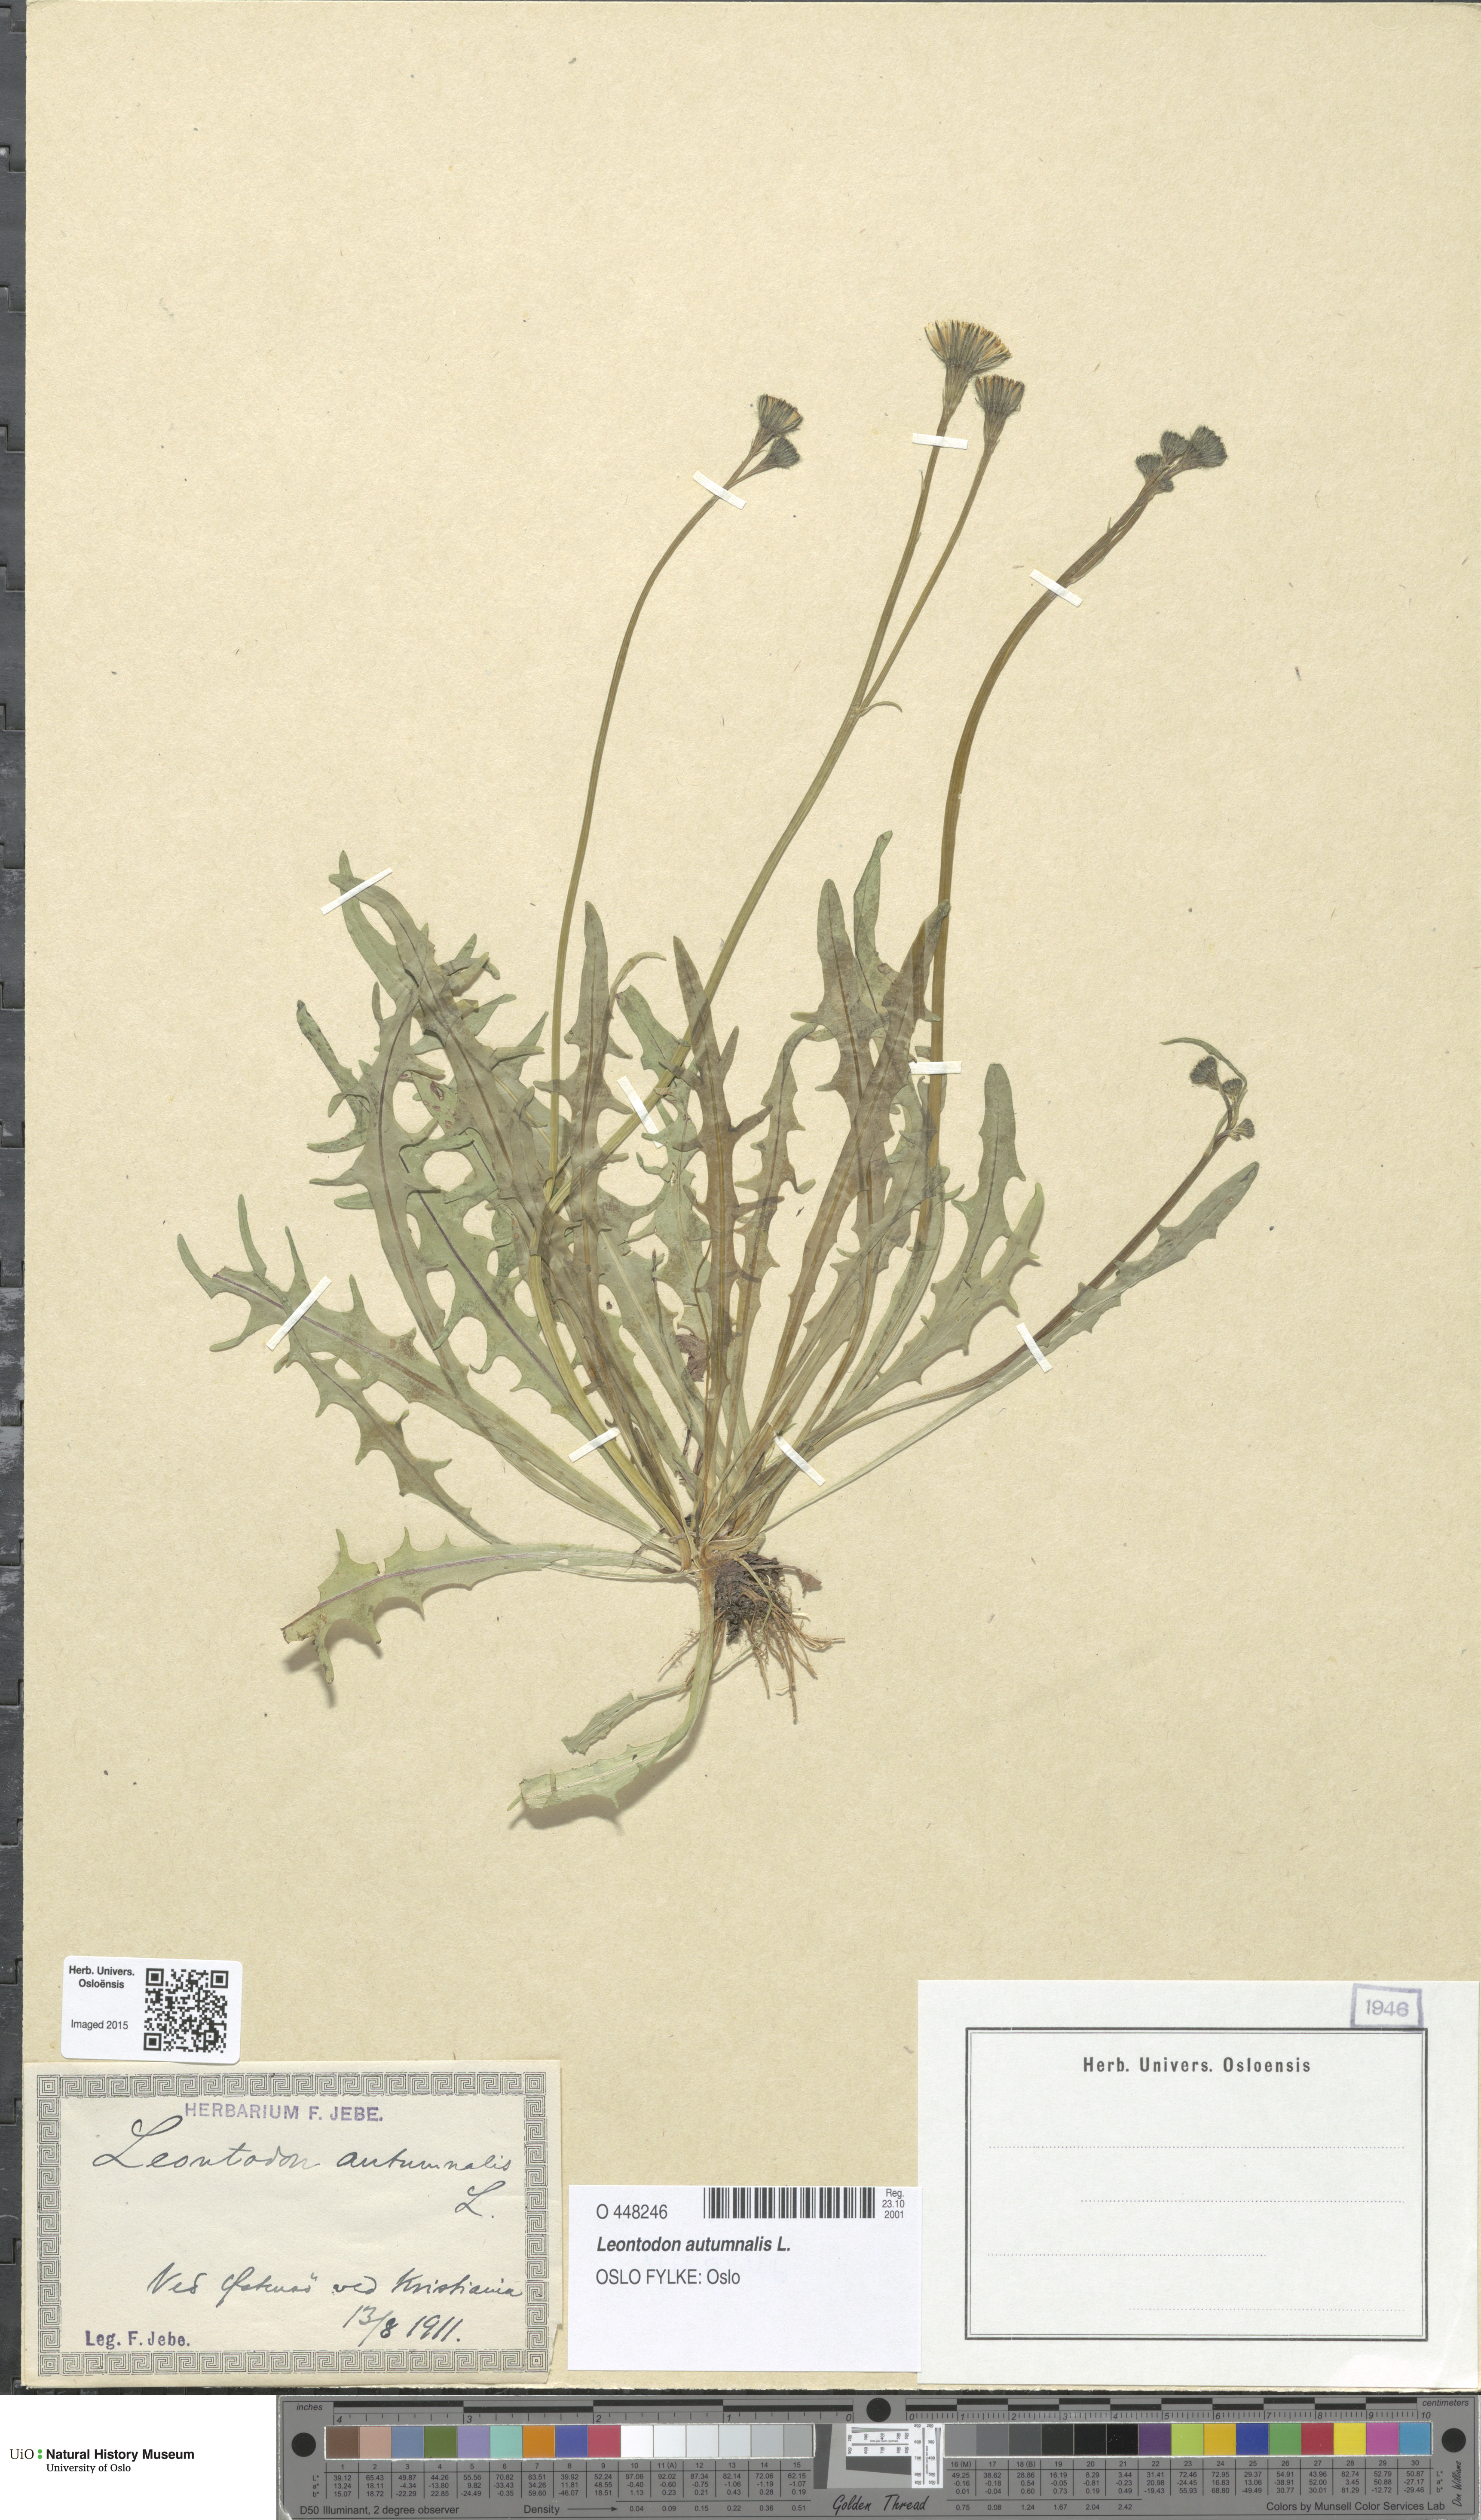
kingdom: Plantae
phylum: Tracheophyta
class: Magnoliopsida
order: Asterales
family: Asteraceae
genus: Scorzoneroides
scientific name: Scorzoneroides autumnalis
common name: Autumn hawkbit
